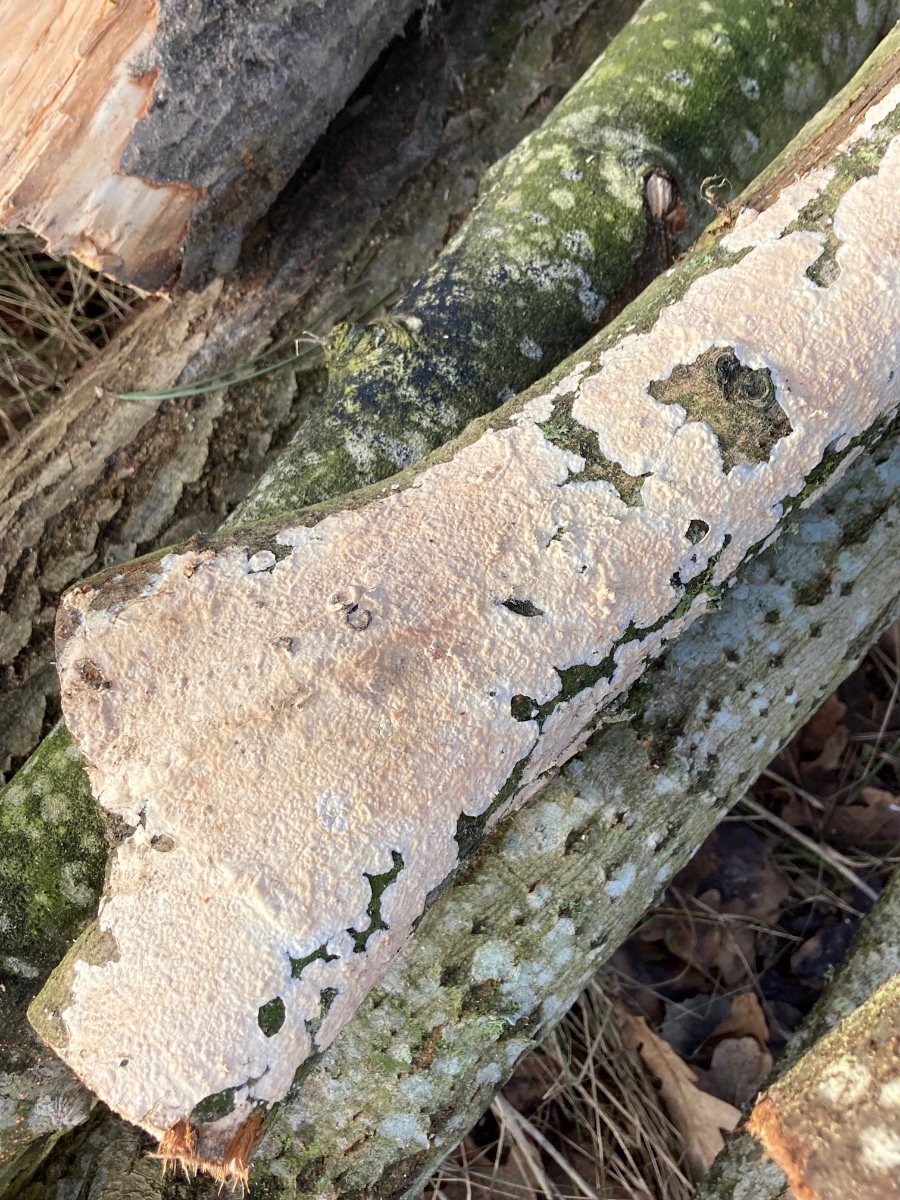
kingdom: Fungi
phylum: Basidiomycota
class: Agaricomycetes
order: Agaricales
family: Physalacriaceae
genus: Cylindrobasidium
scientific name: Cylindrobasidium evolvens
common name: sprækkehinde
